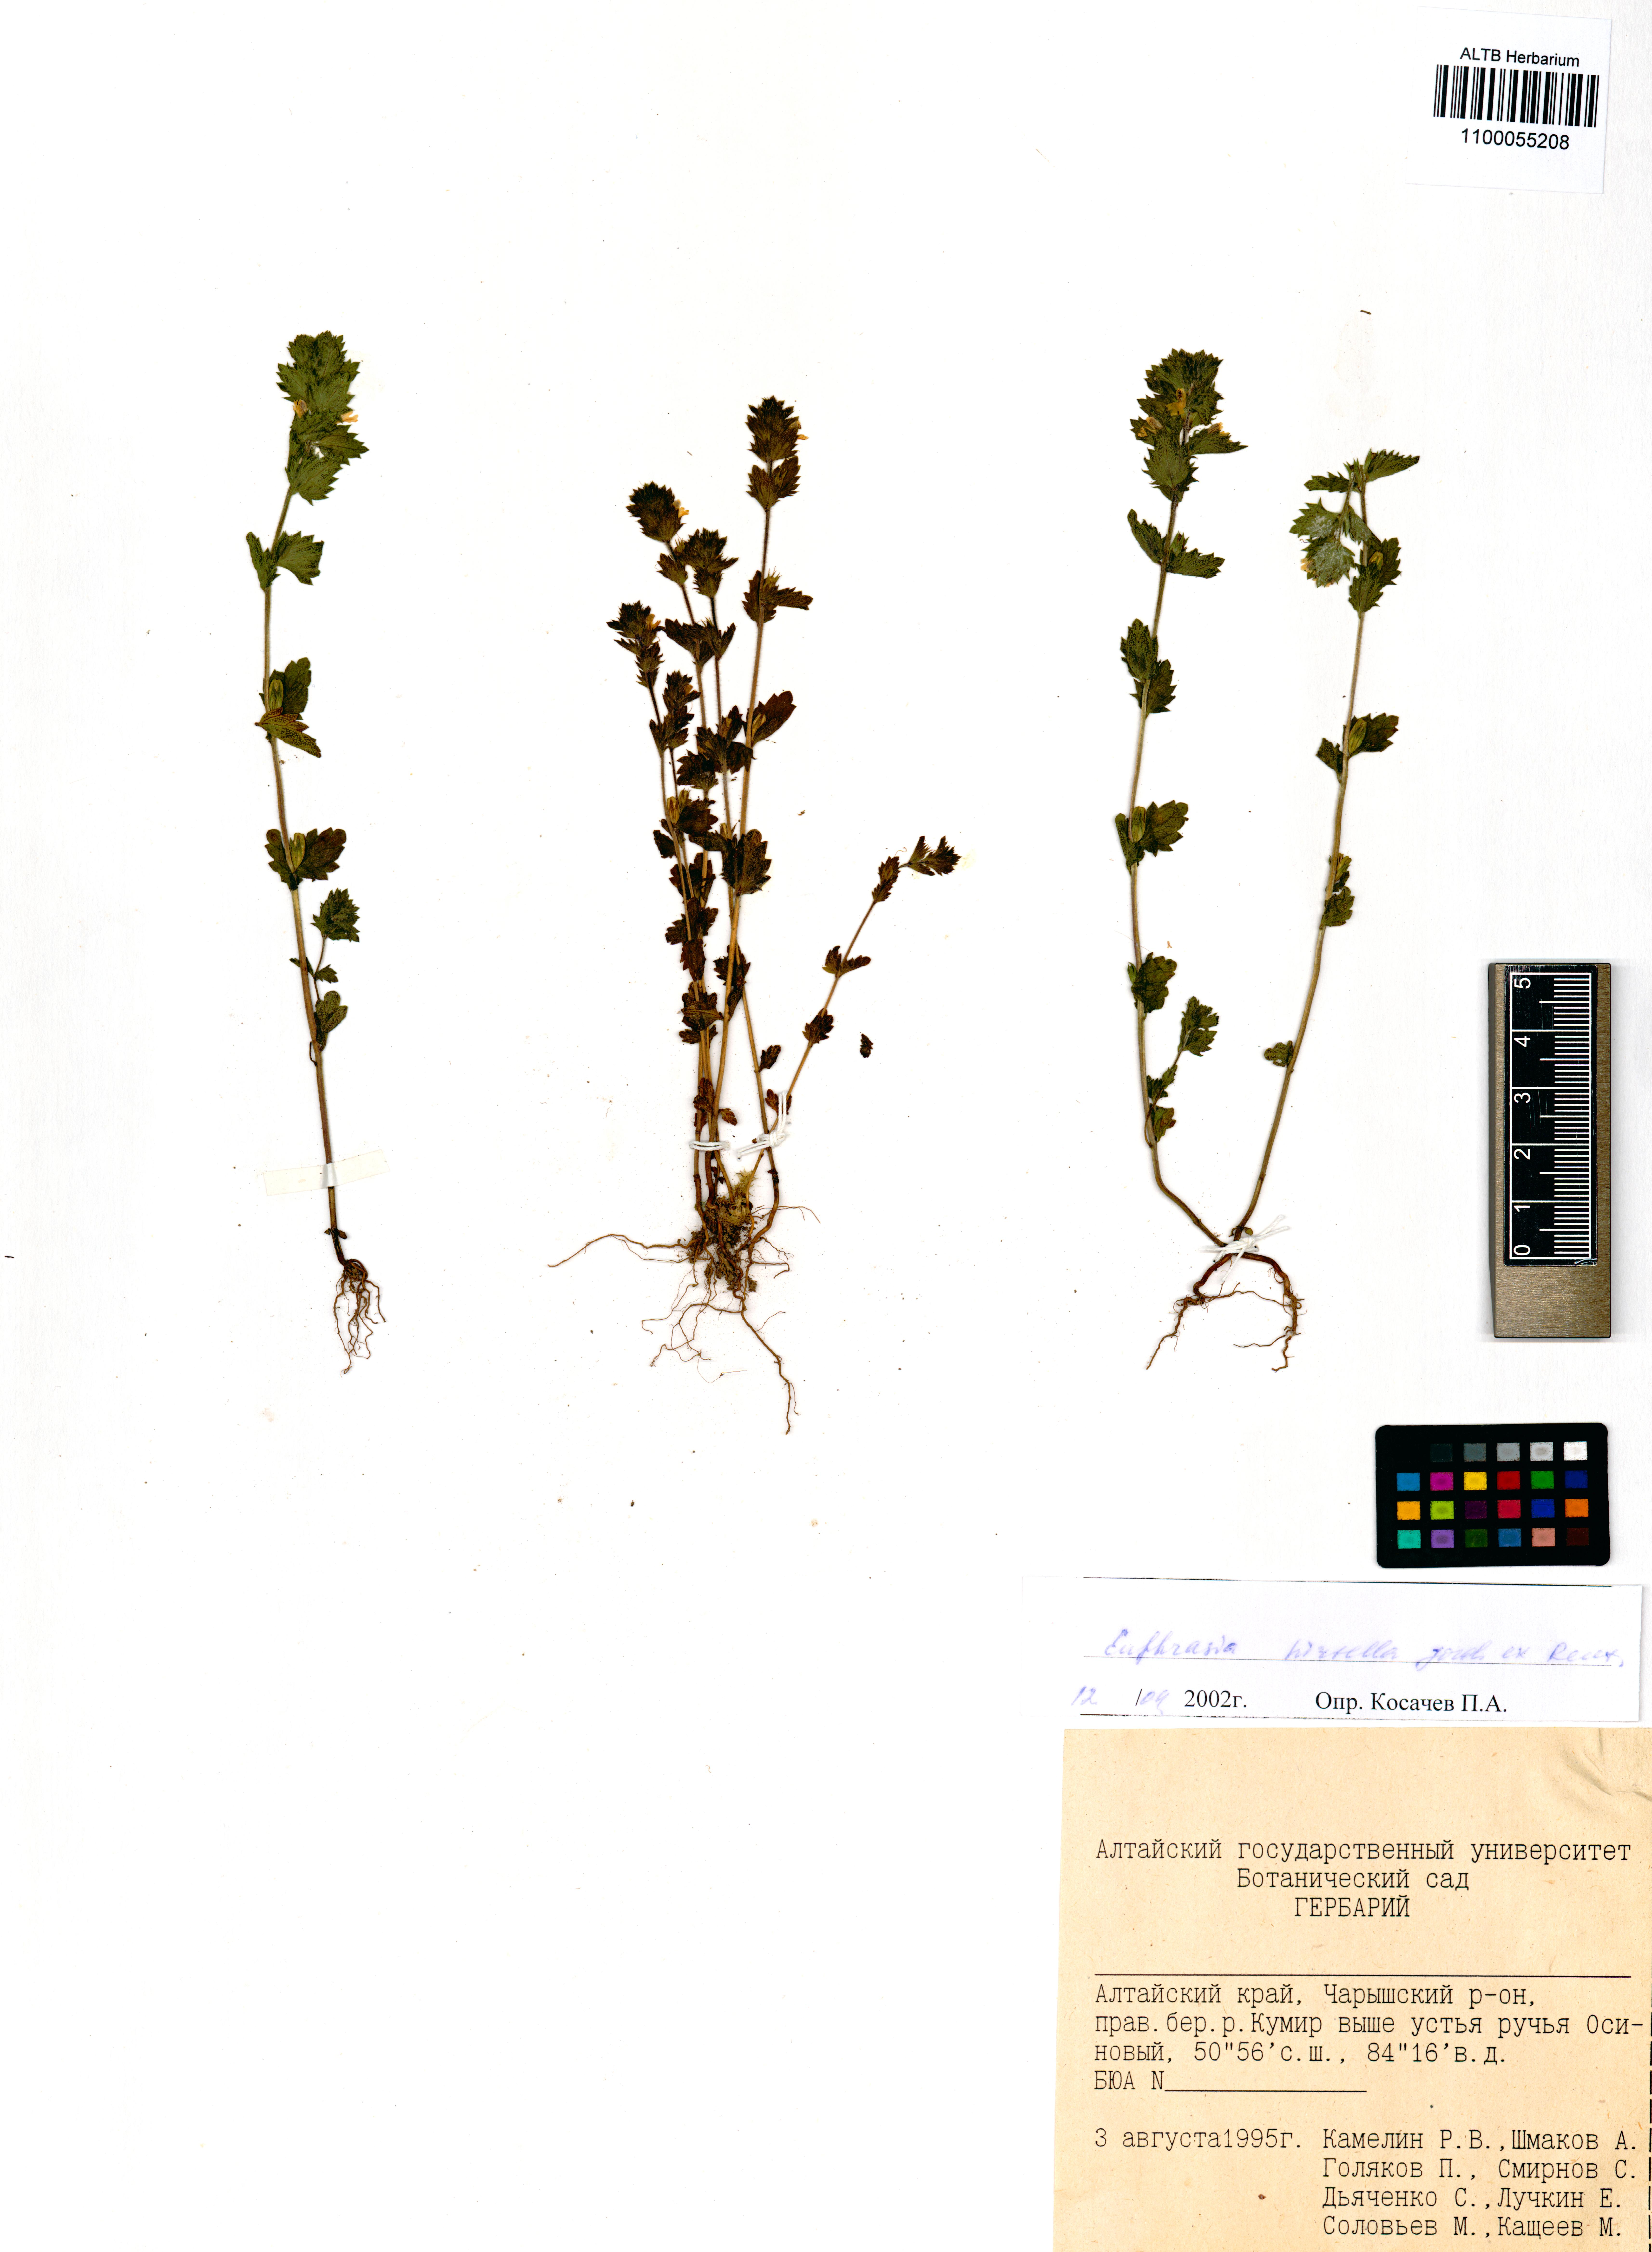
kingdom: Plantae
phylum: Tracheophyta
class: Magnoliopsida
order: Lamiales
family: Orobanchaceae
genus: Euphrasia
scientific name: Euphrasia hirtella
